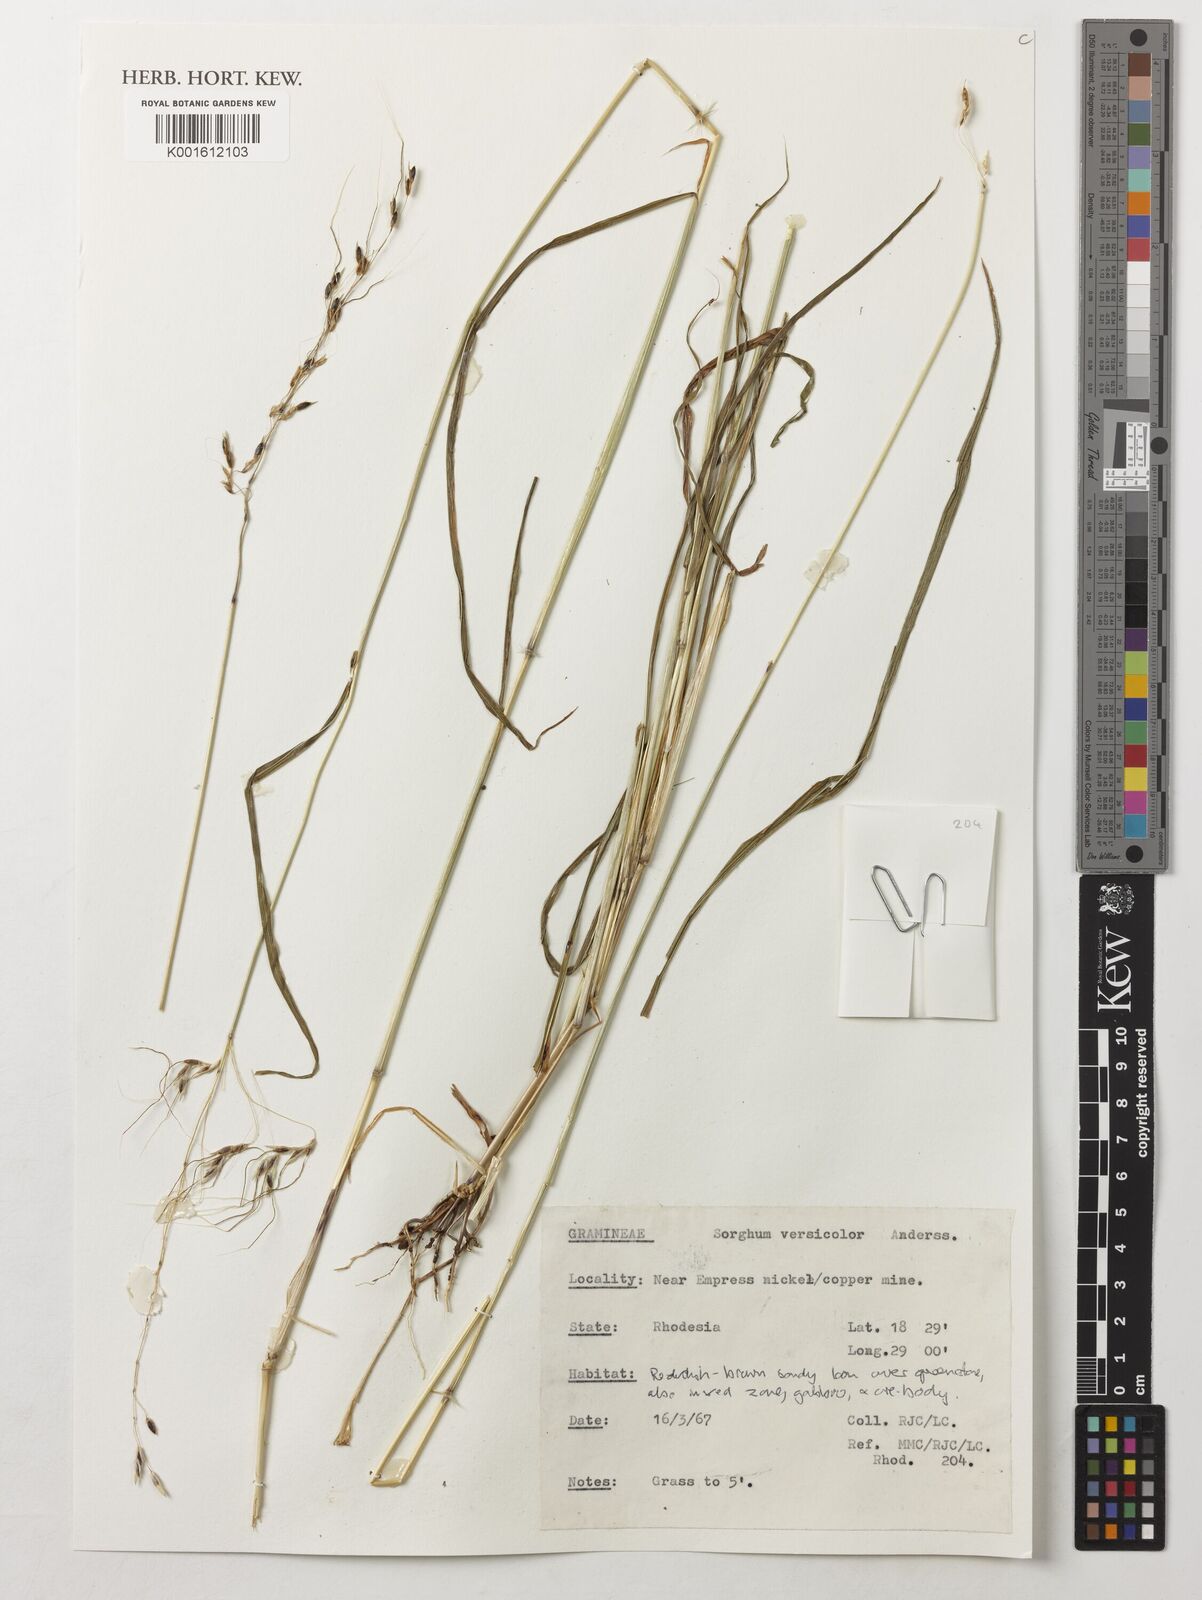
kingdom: Plantae
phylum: Tracheophyta
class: Liliopsida
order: Poales
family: Poaceae
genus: Sarga
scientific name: Sarga versicolor
